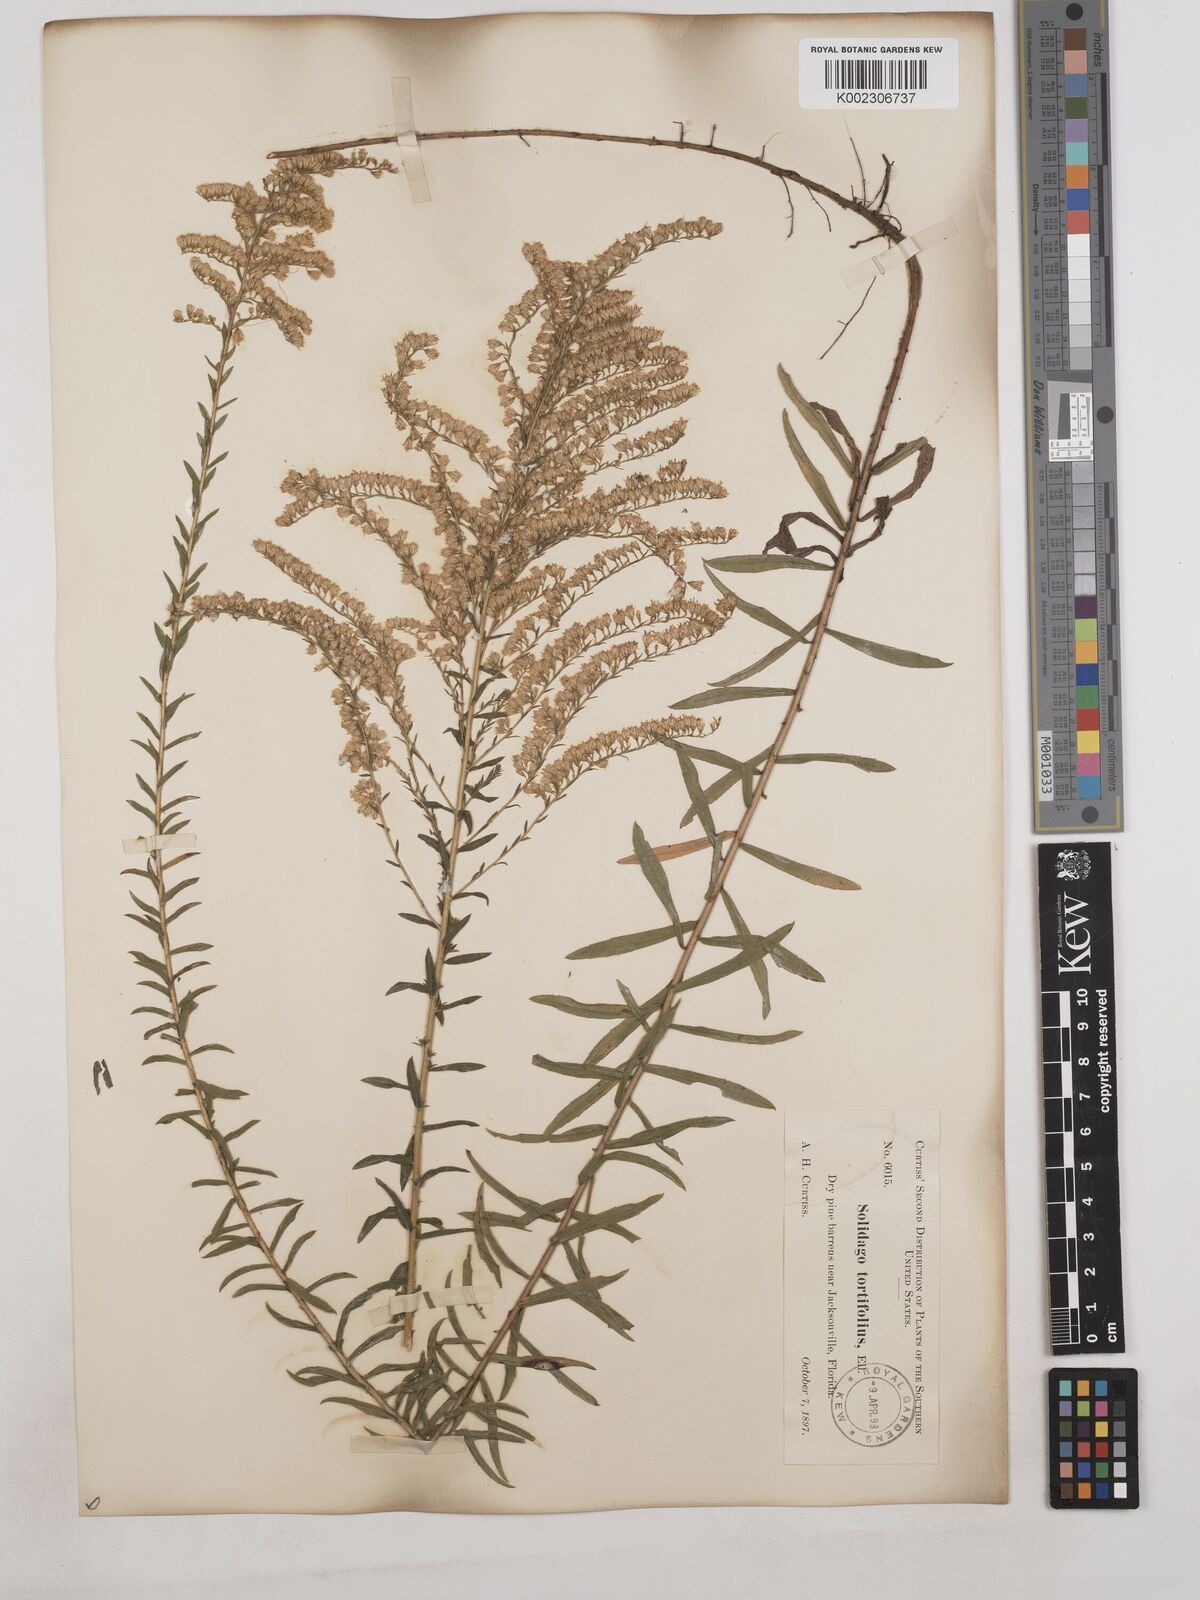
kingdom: Plantae
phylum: Tracheophyta
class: Magnoliopsida
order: Asterales
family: Asteraceae
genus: Solidago
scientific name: Solidago tortifolia
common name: Twisted-leaf goldenrod
